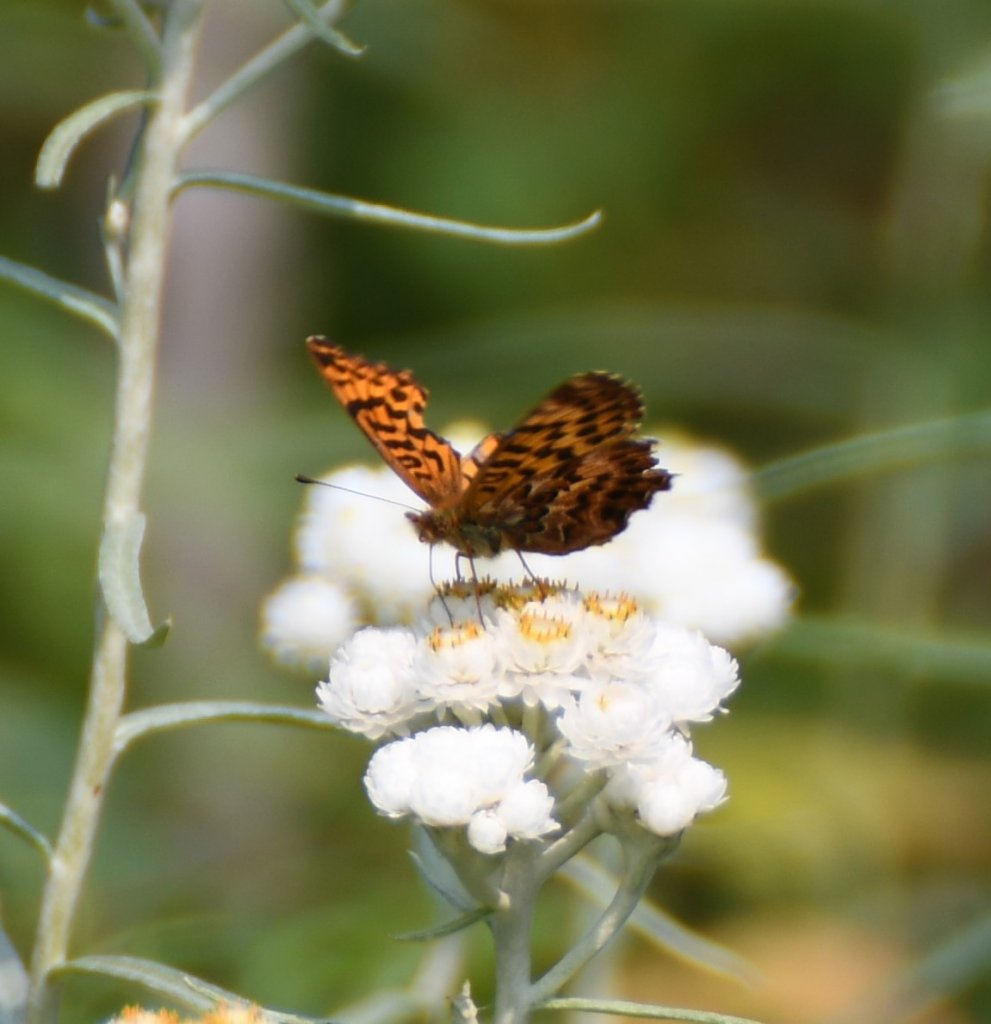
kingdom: Animalia
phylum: Arthropoda
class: Insecta
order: Lepidoptera
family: Nymphalidae
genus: Boloria
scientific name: Boloria chariclea
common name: Arctic Fritillary
